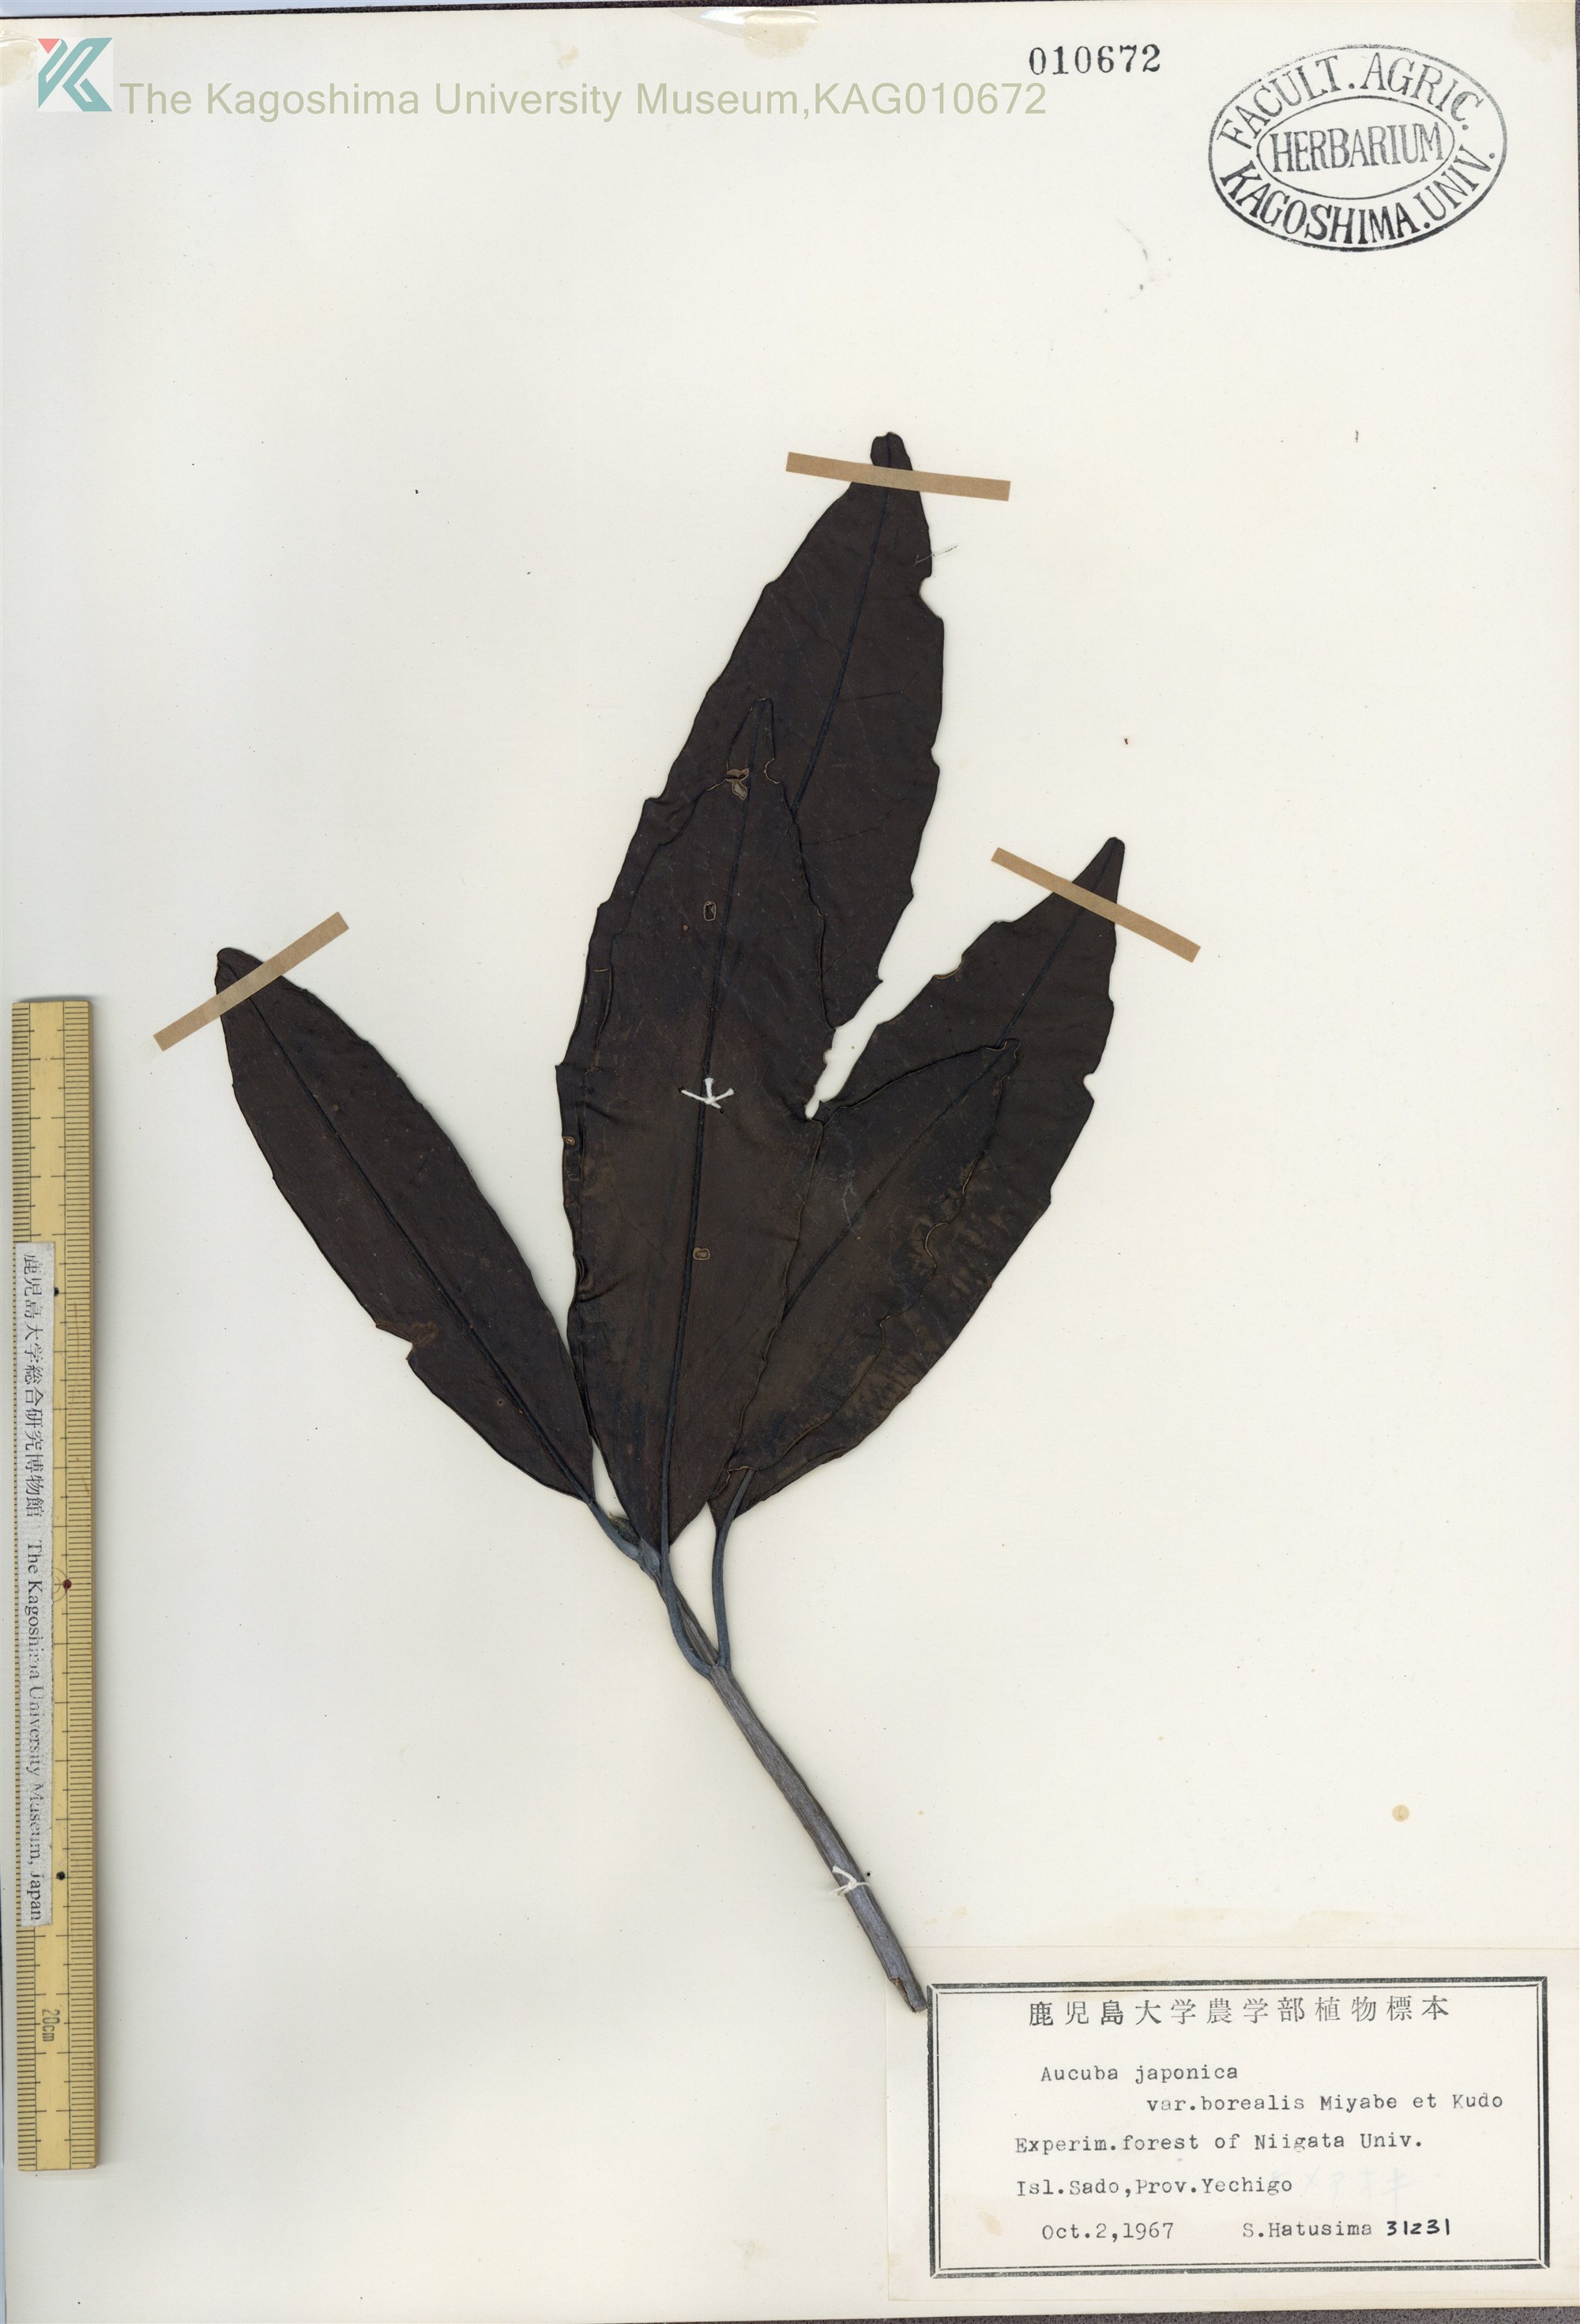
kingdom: Plantae
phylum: Tracheophyta
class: Magnoliopsida
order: Garryales
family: Garryaceae
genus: Aucuba
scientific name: Aucuba japonica
